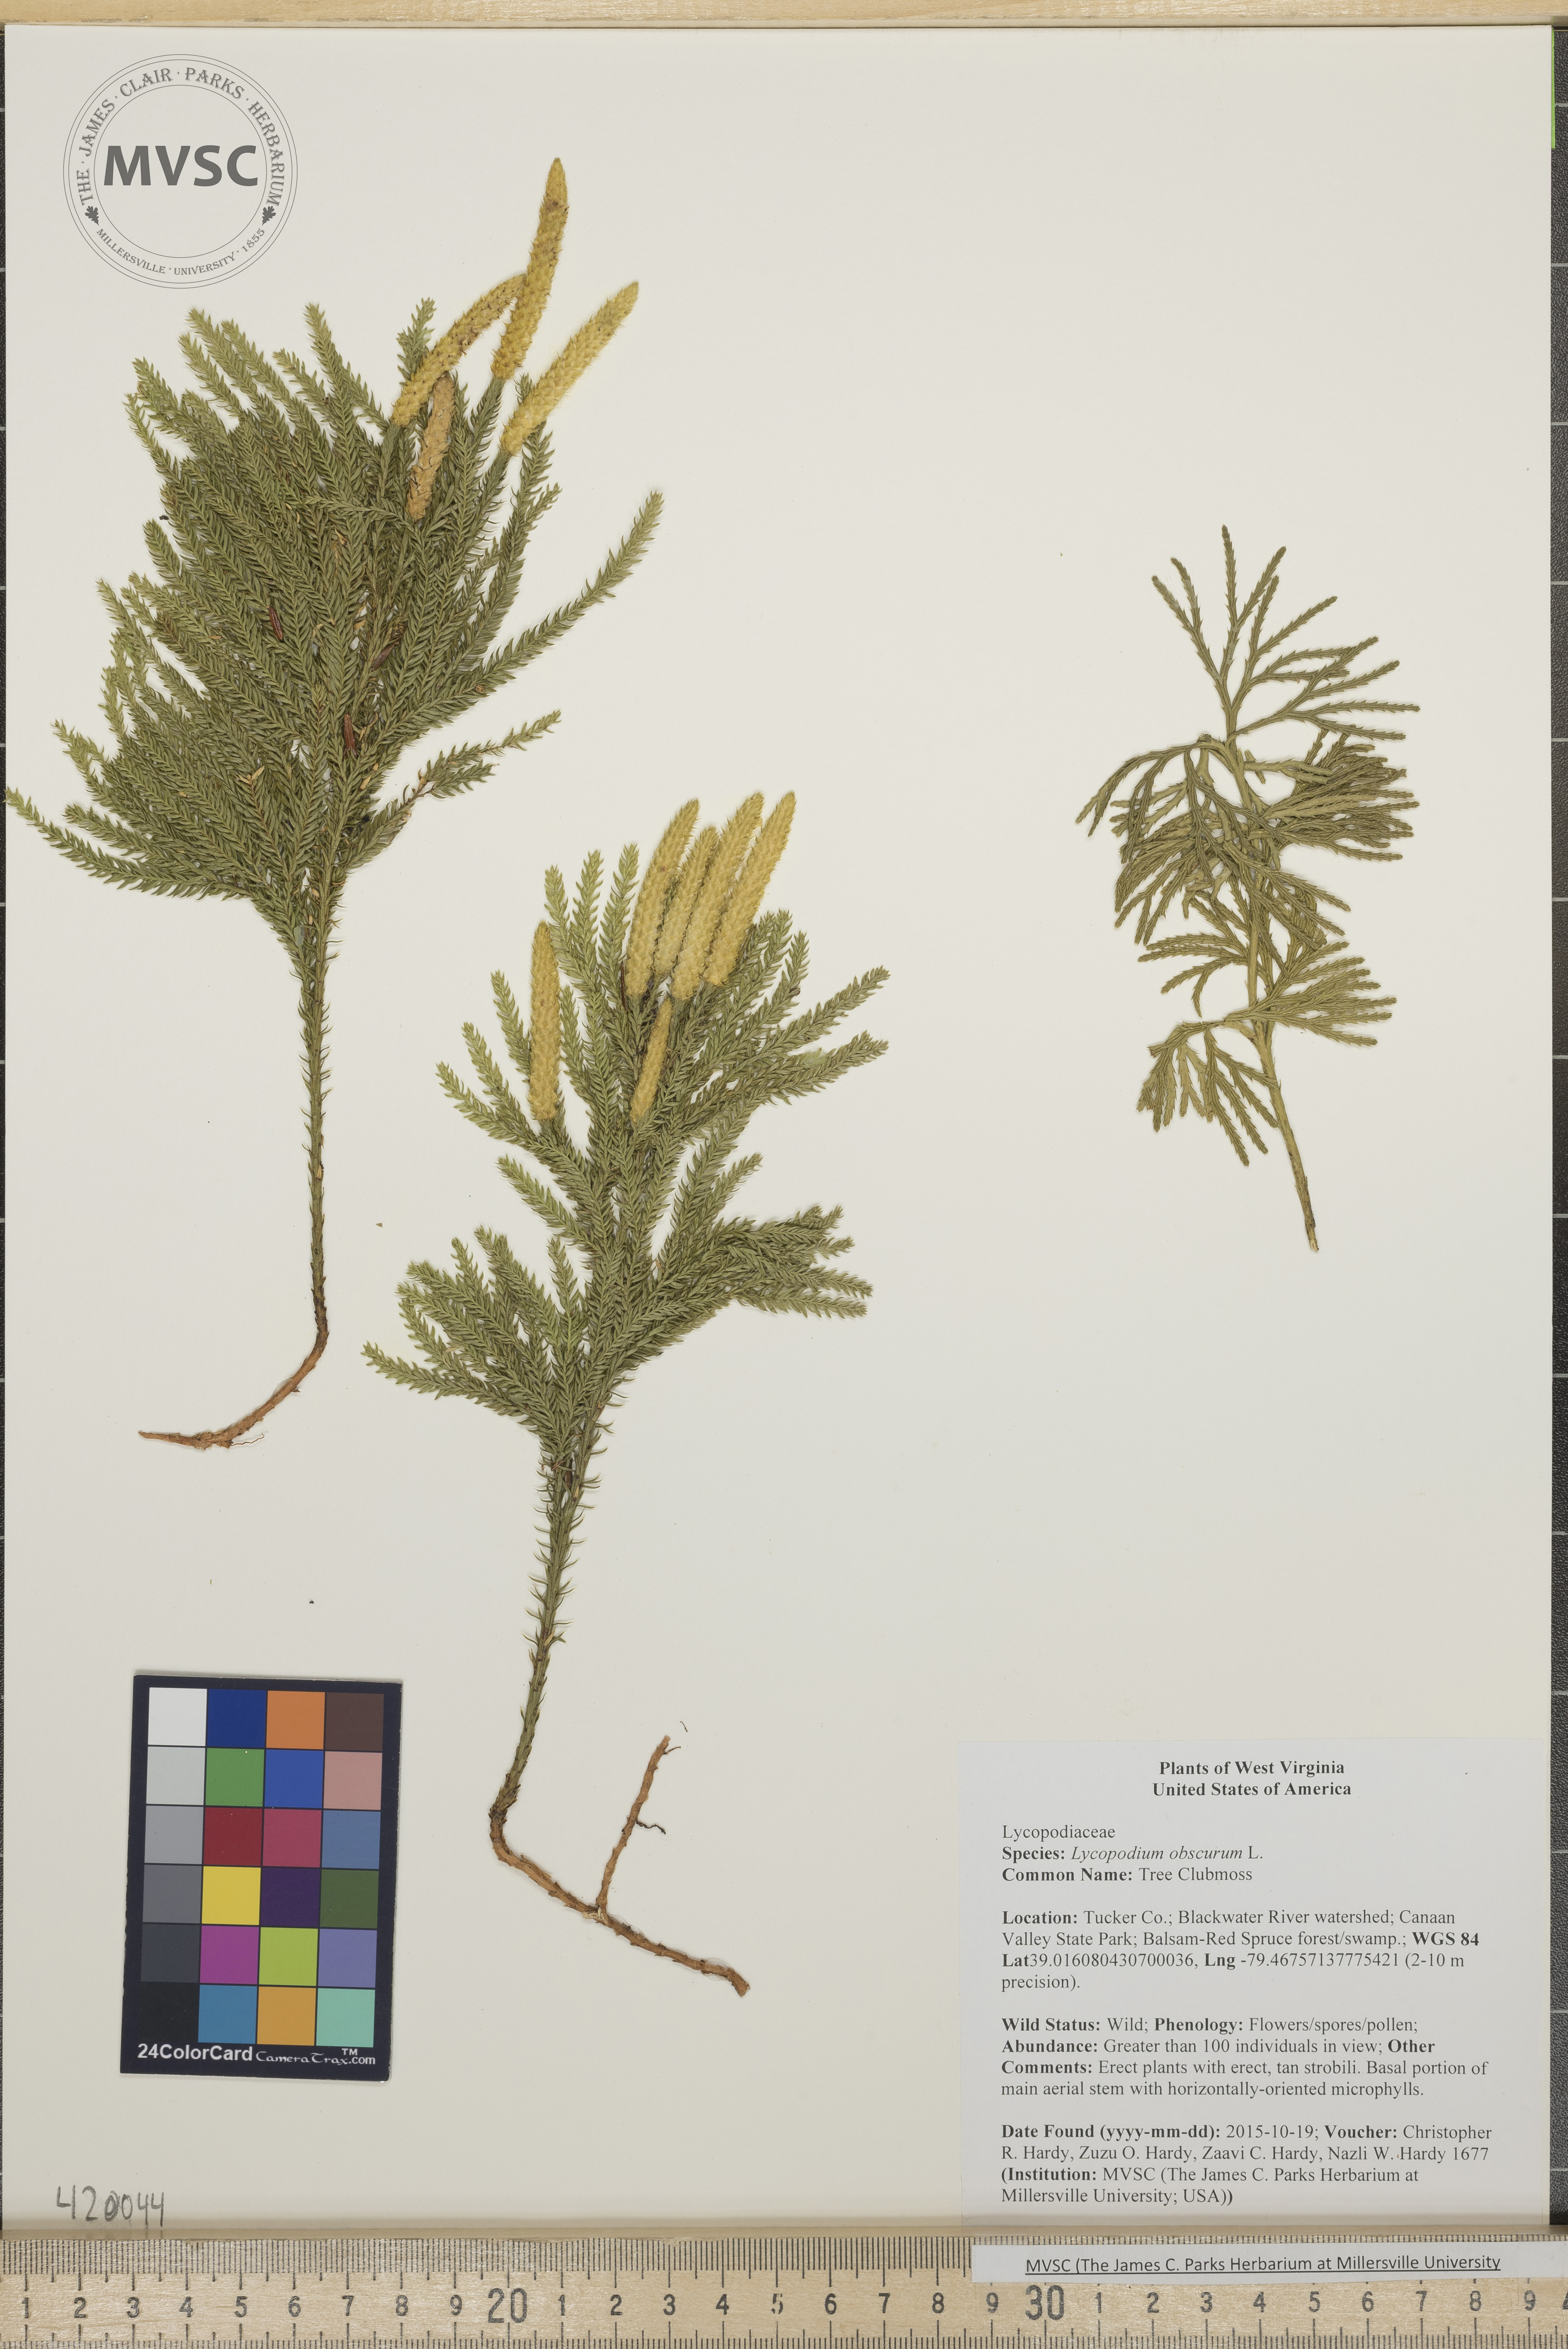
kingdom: Plantae
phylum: Tracheophyta
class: Lycopodiopsida
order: Lycopodiales
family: Lycopodiaceae
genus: Dendrolycopodium
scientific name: Dendrolycopodium obscurum
